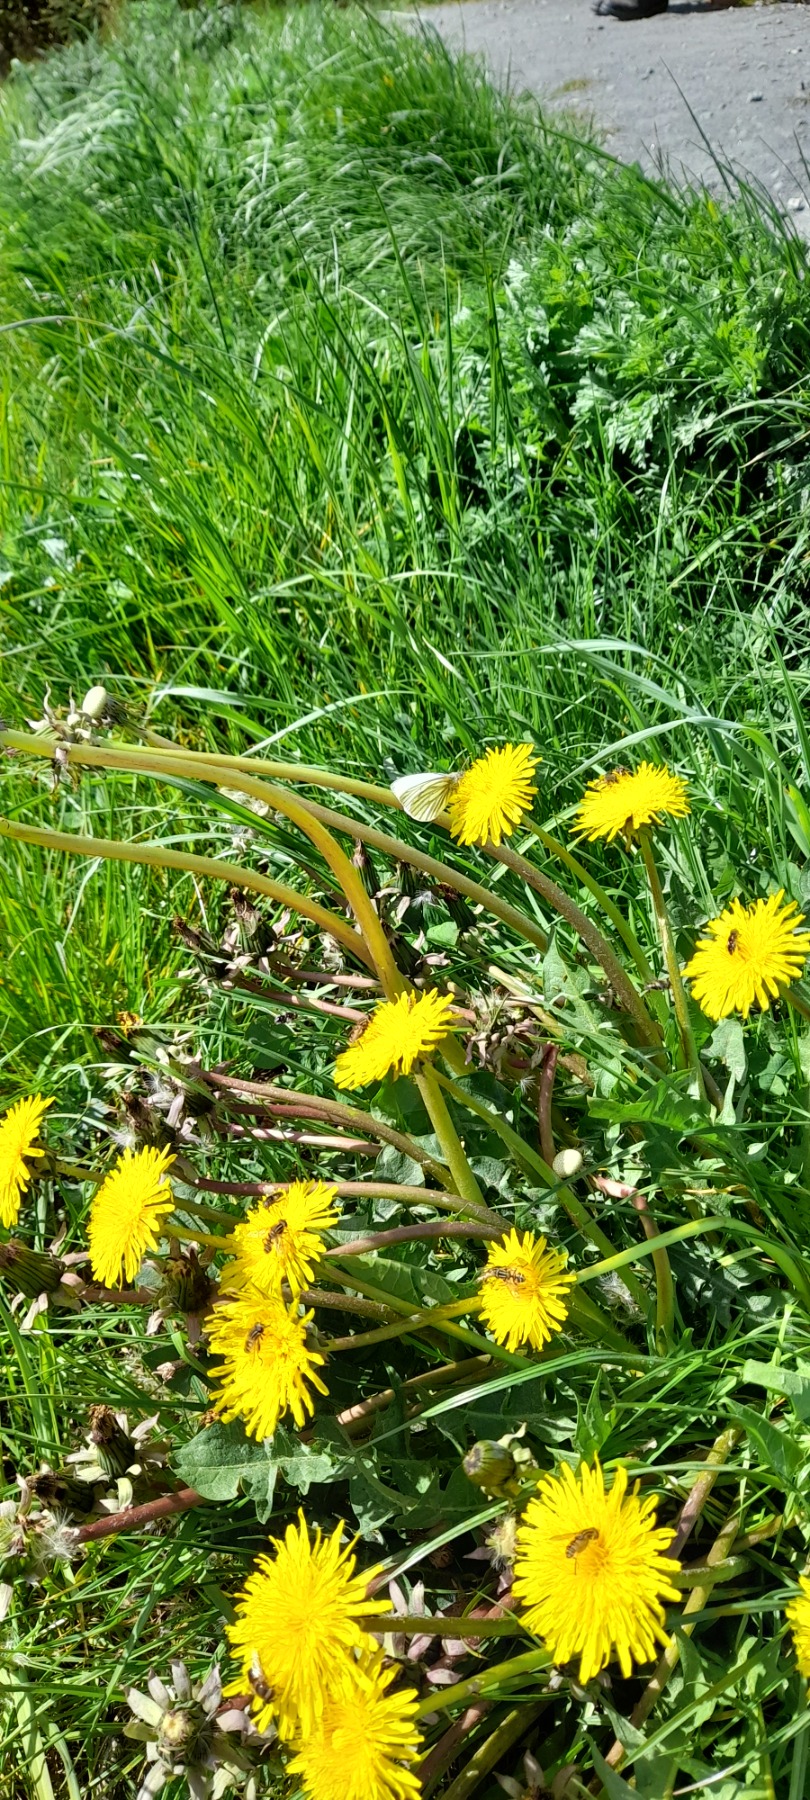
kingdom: Animalia
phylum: Arthropoda
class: Insecta
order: Lepidoptera
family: Pieridae
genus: Pieris
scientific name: Pieris napi
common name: Grønåret kålsommerfugl
